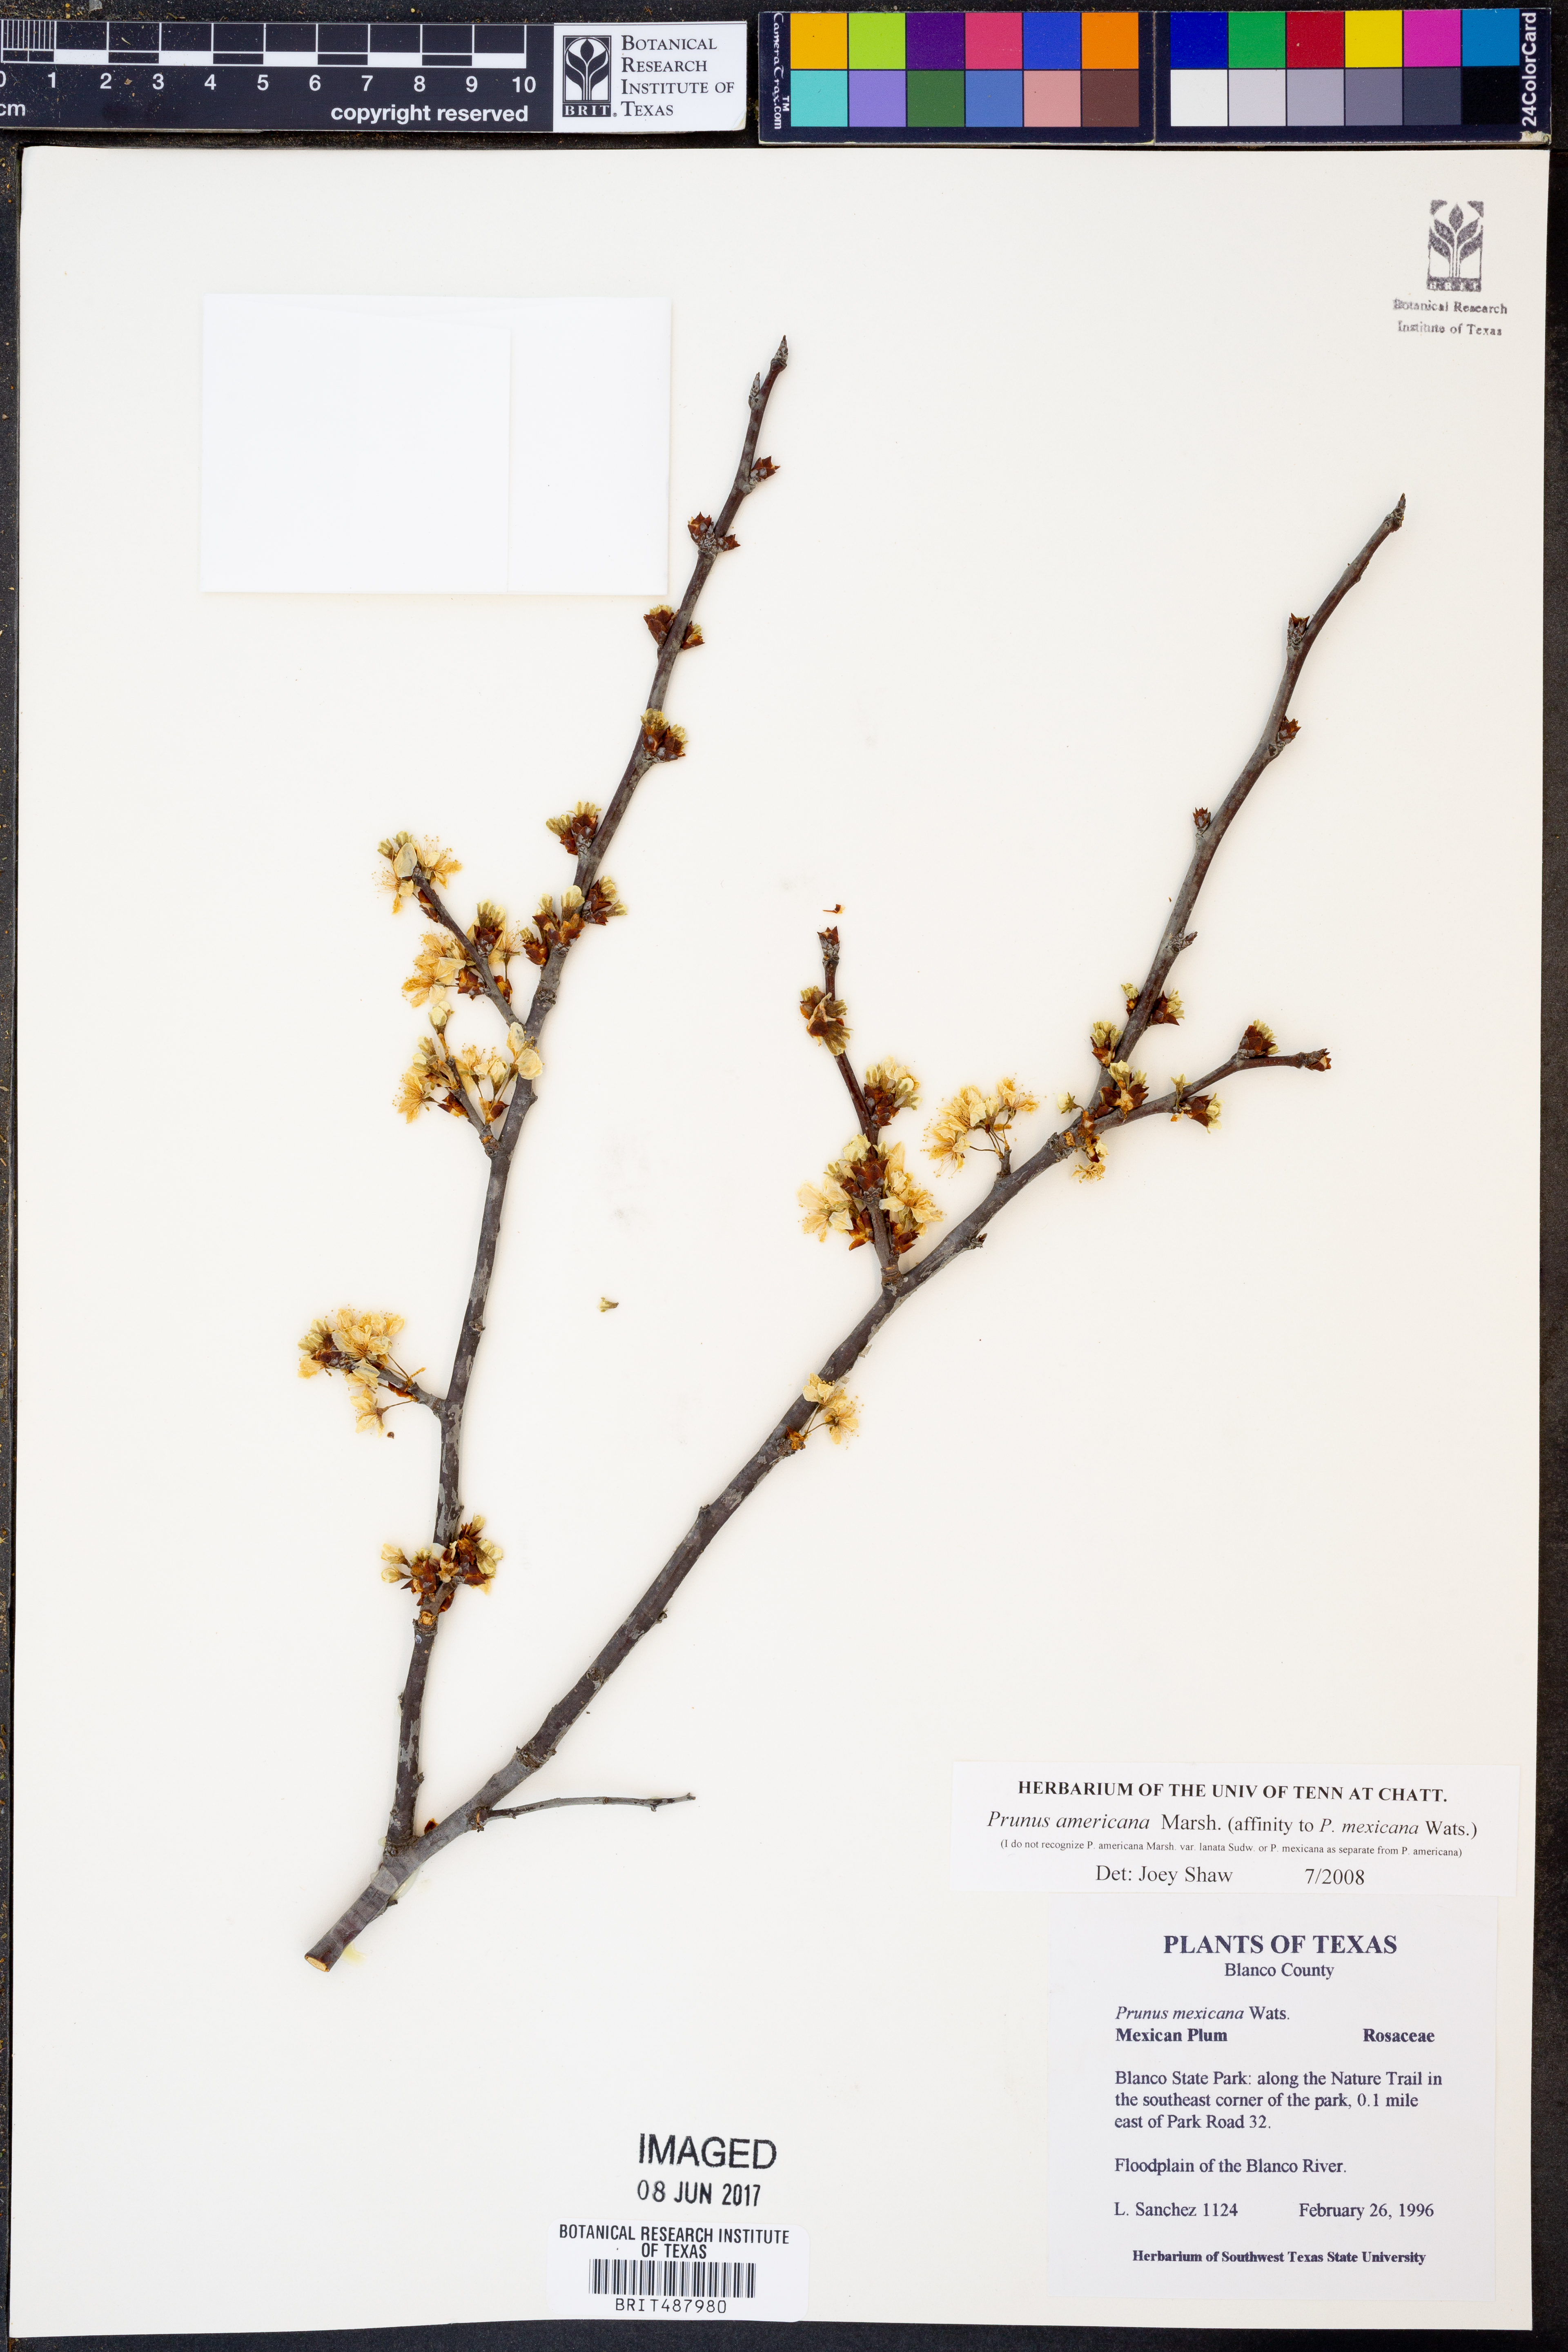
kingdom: Plantae
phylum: Tracheophyta
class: Magnoliopsida
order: Rosales
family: Rosaceae
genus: Prunus
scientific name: Prunus americana
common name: American plum
